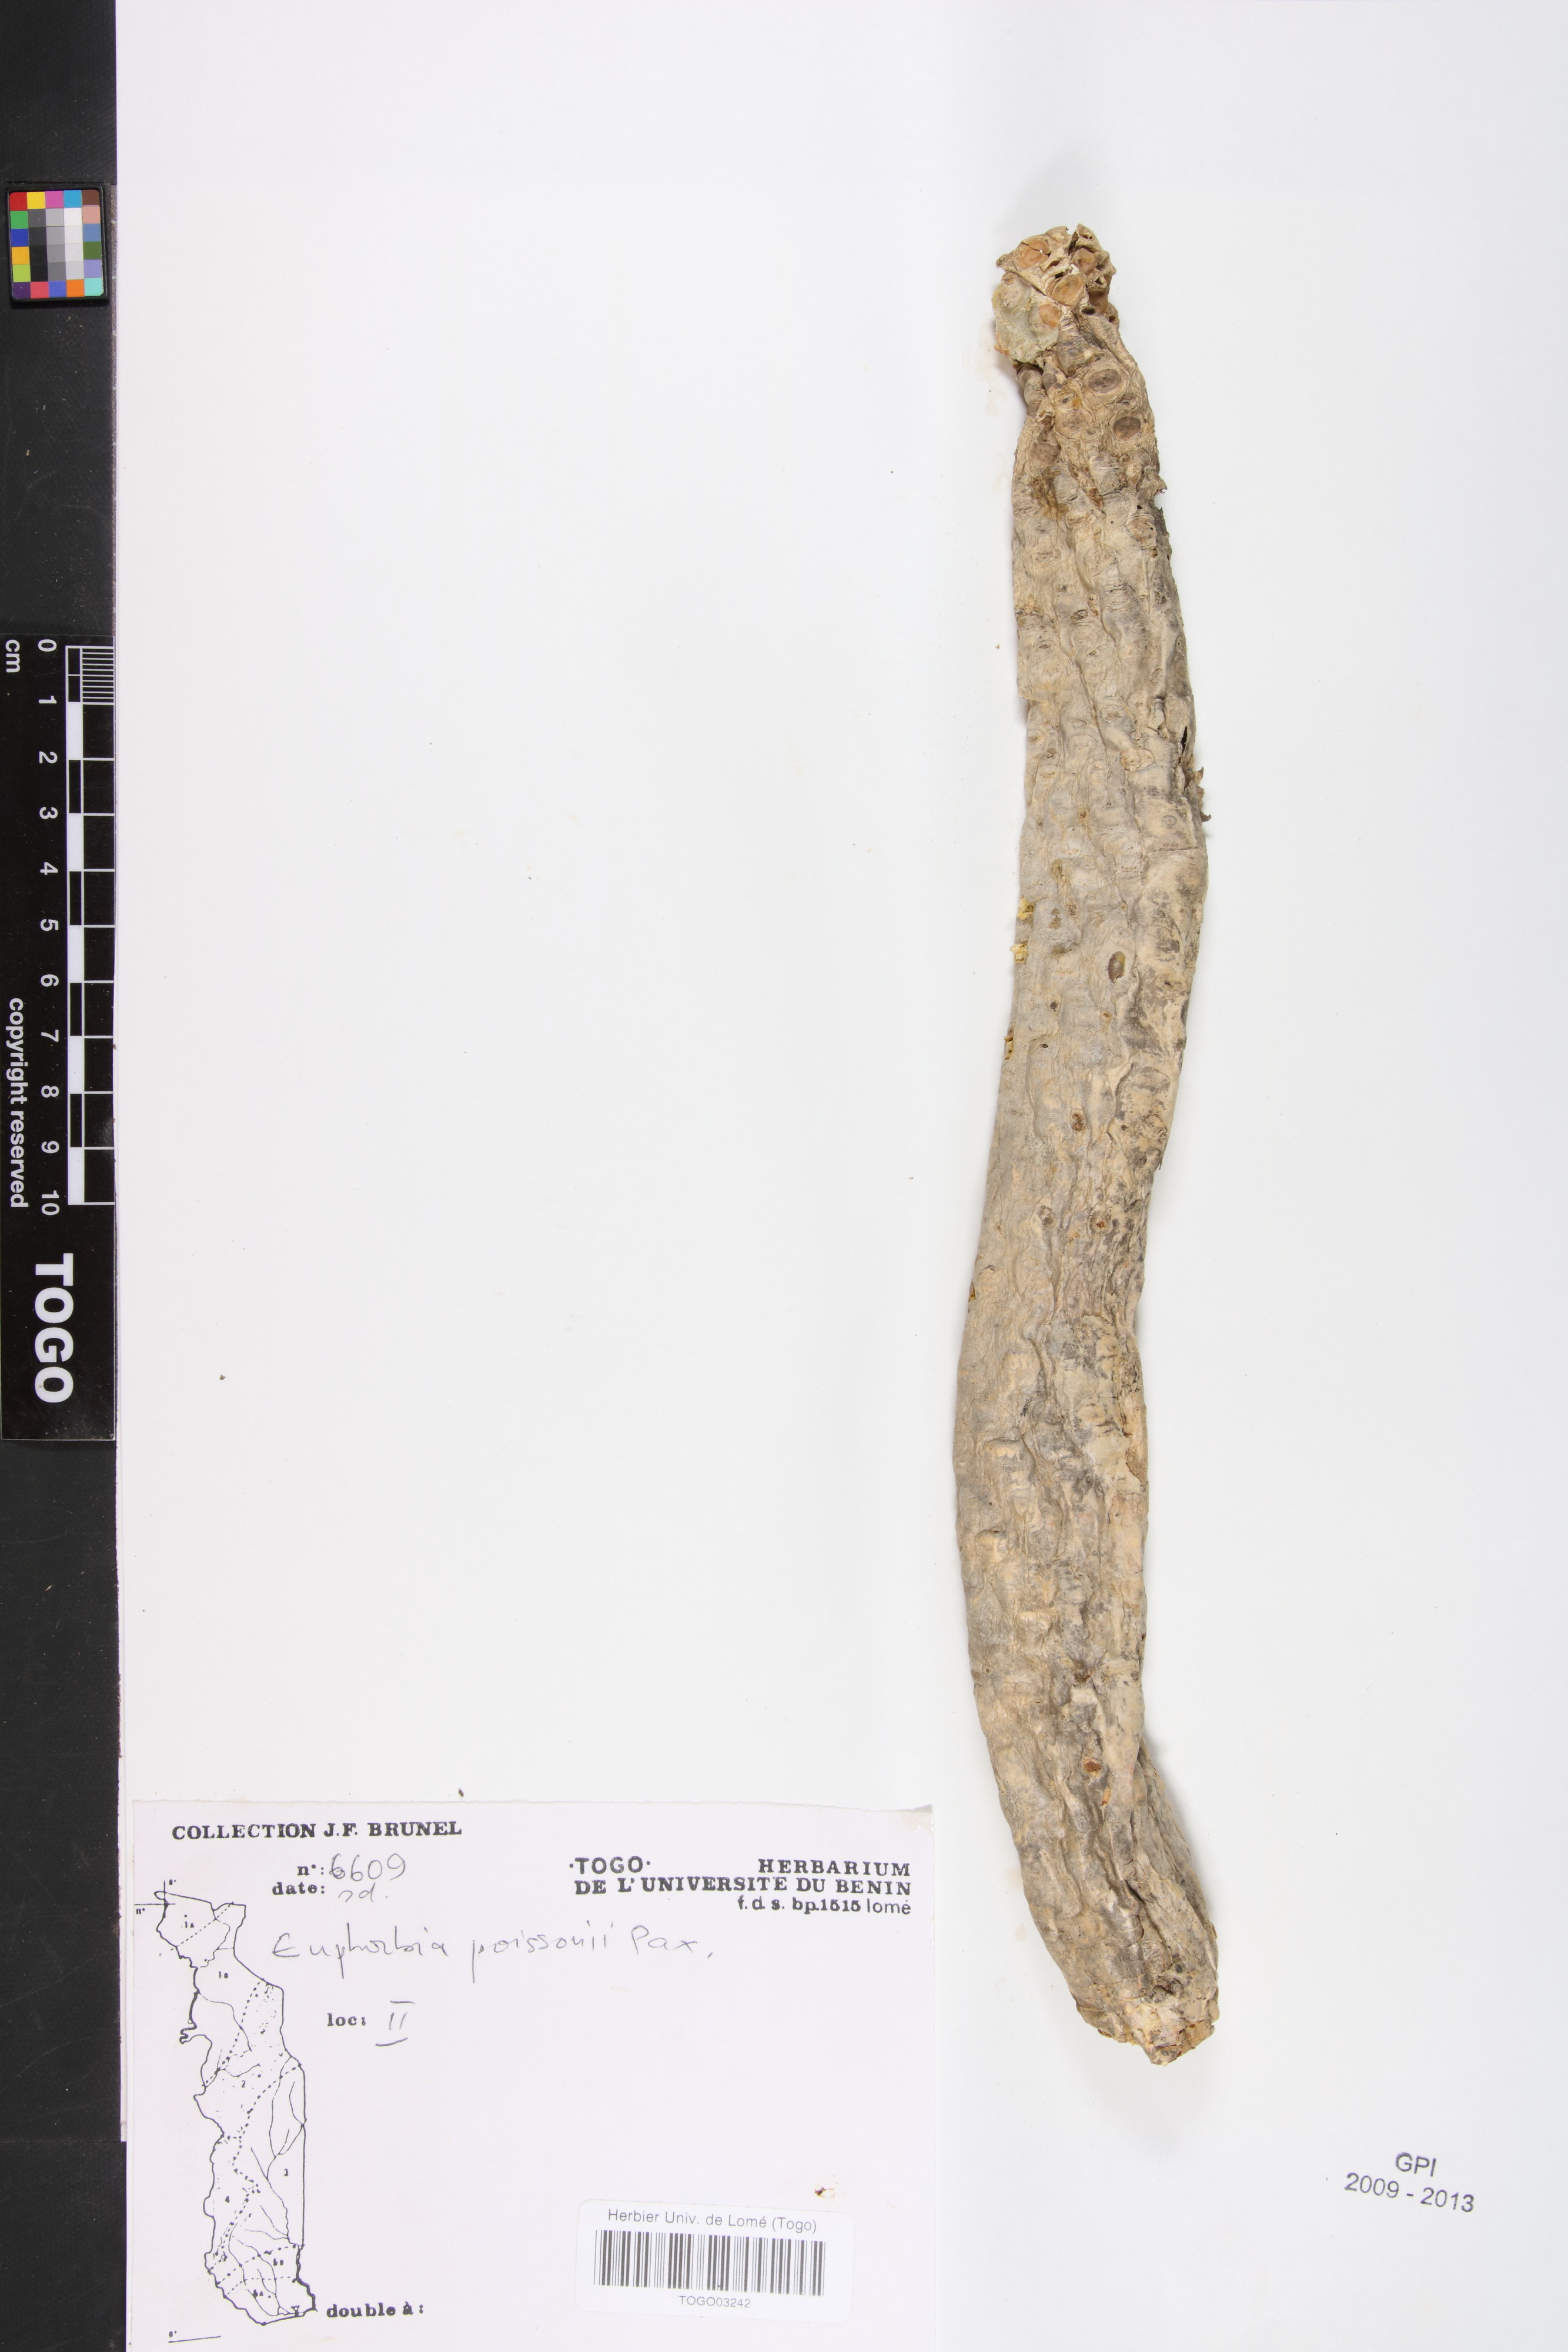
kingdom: Plantae
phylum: Tracheophyta
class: Magnoliopsida
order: Malpighiales
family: Euphorbiaceae
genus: Euphorbia
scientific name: Euphorbia poissonii
